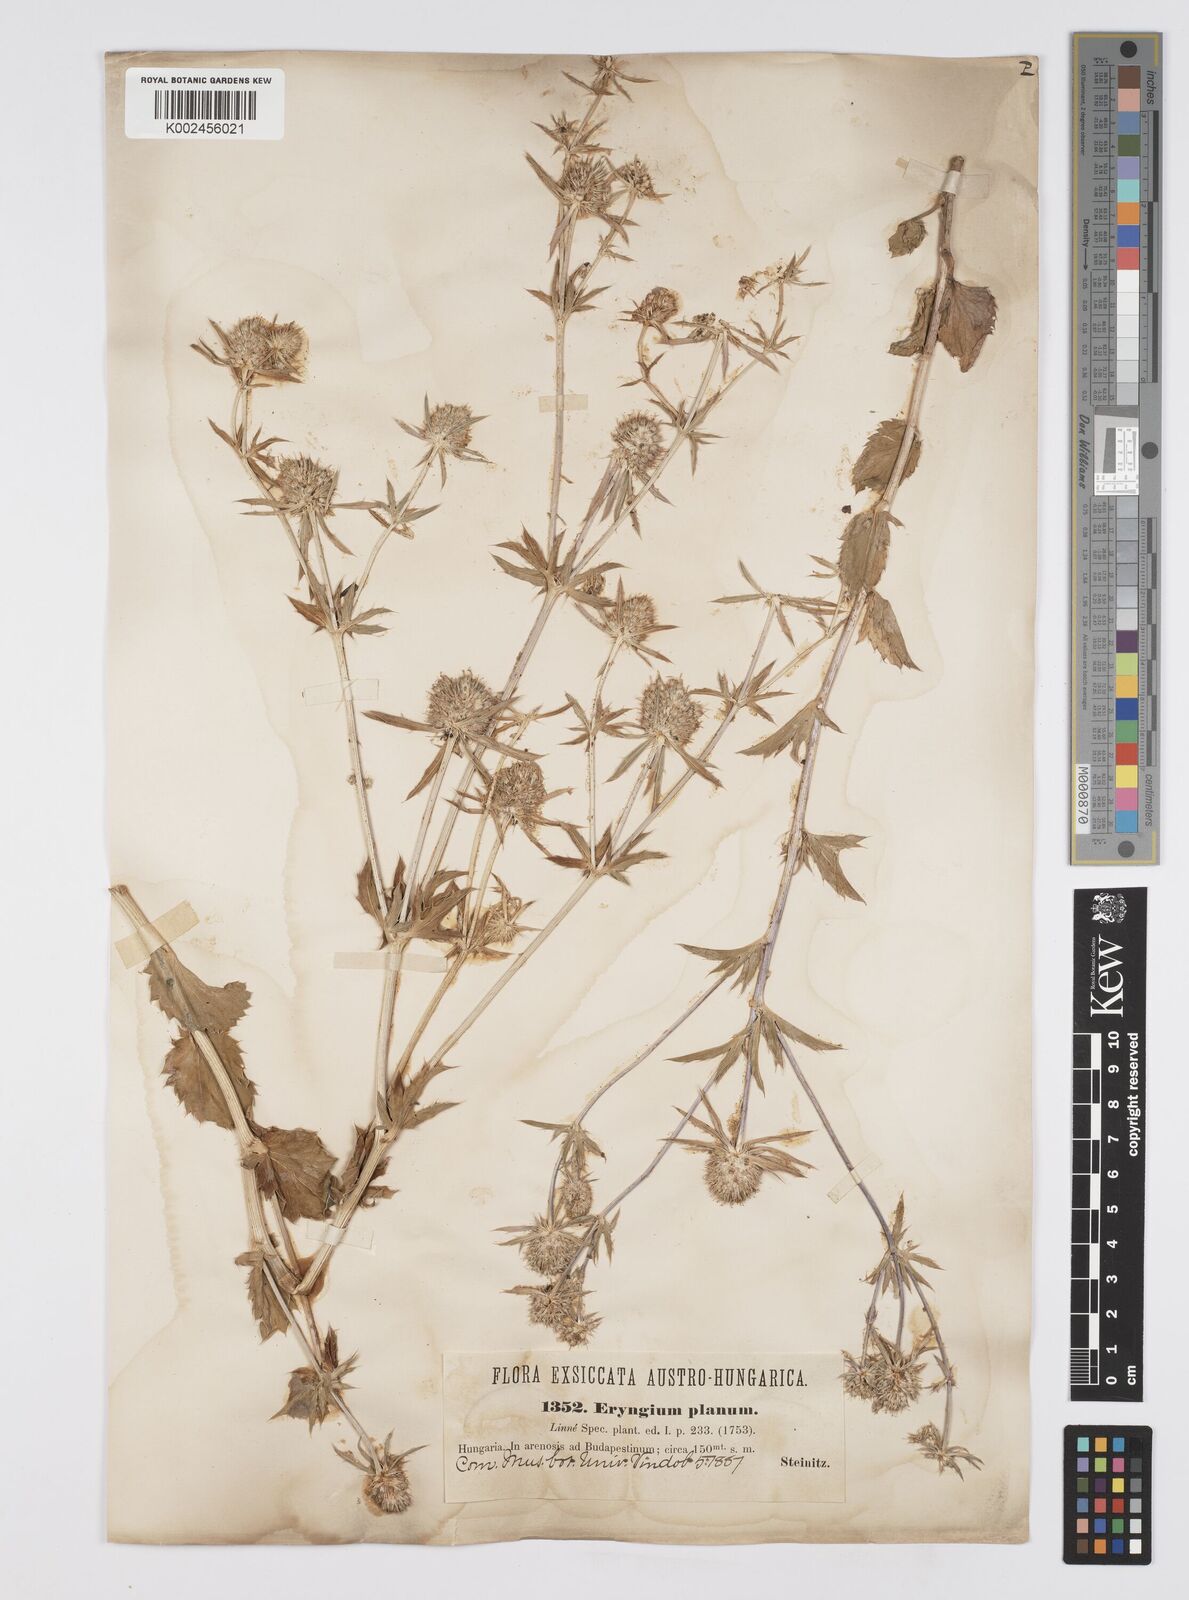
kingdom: Plantae
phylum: Tracheophyta
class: Magnoliopsida
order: Apiales
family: Apiaceae
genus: Eryngium
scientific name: Eryngium planum
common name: Blue eryngo
